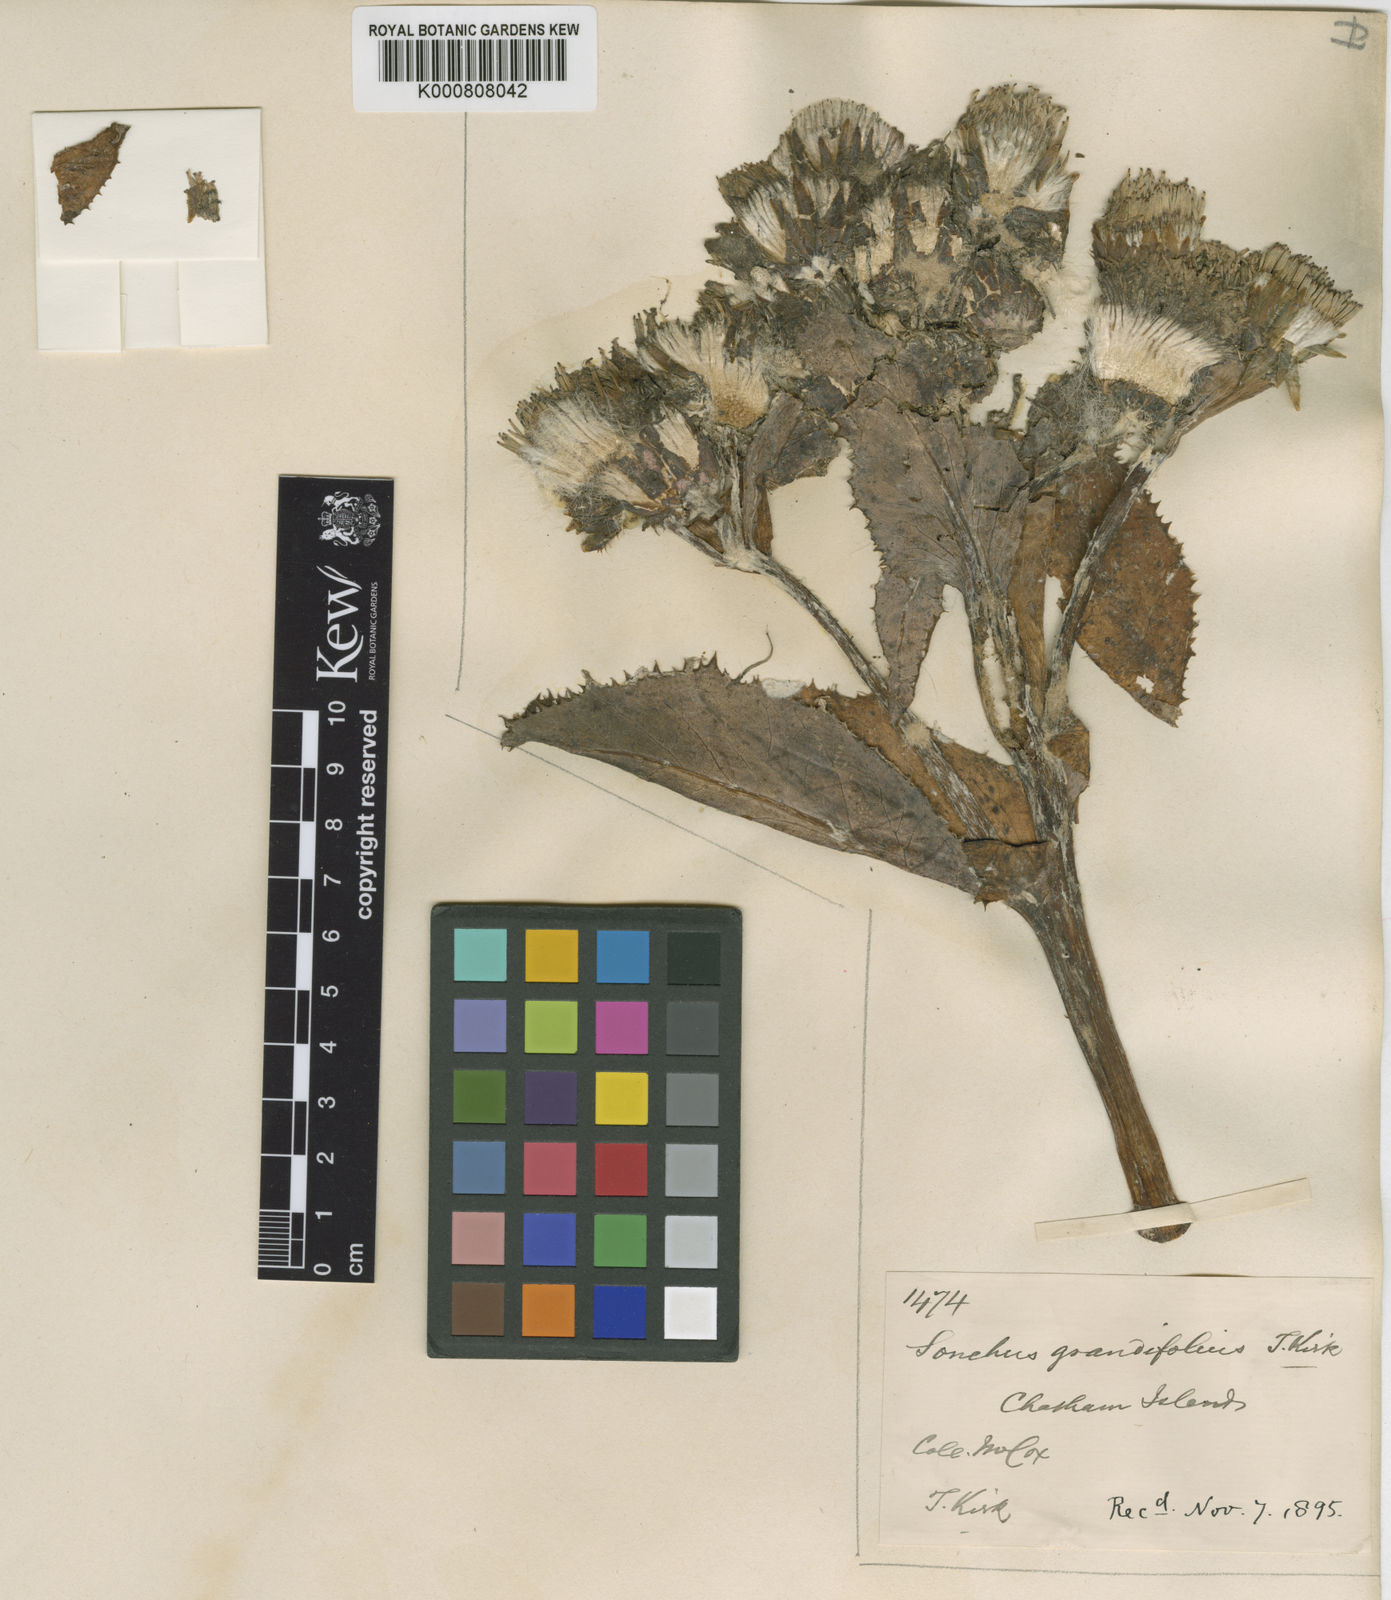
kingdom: Plantae
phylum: Tracheophyta
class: Magnoliopsida
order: Asterales
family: Asteraceae
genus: Sonchus
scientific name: Sonchus grandifolius
